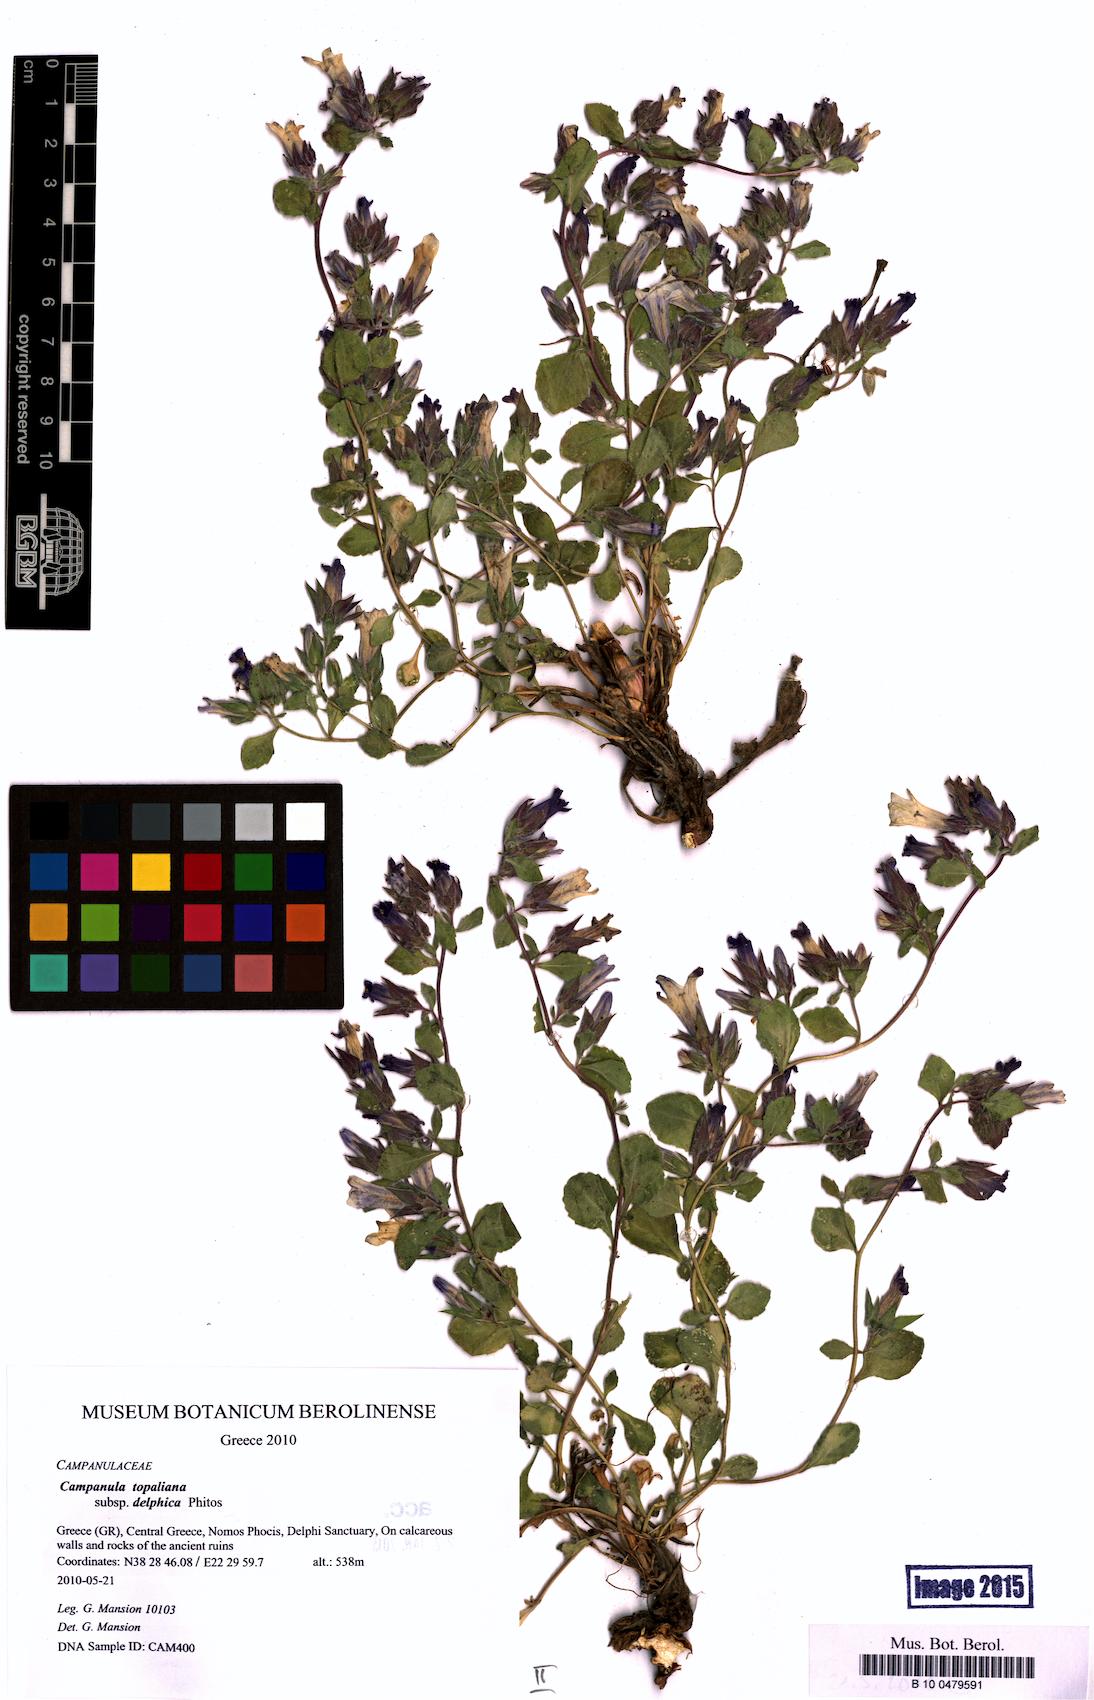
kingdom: Plantae
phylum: Tracheophyta
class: Magnoliopsida
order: Asterales
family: Campanulaceae
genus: Campanula
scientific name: Campanula topaliana
